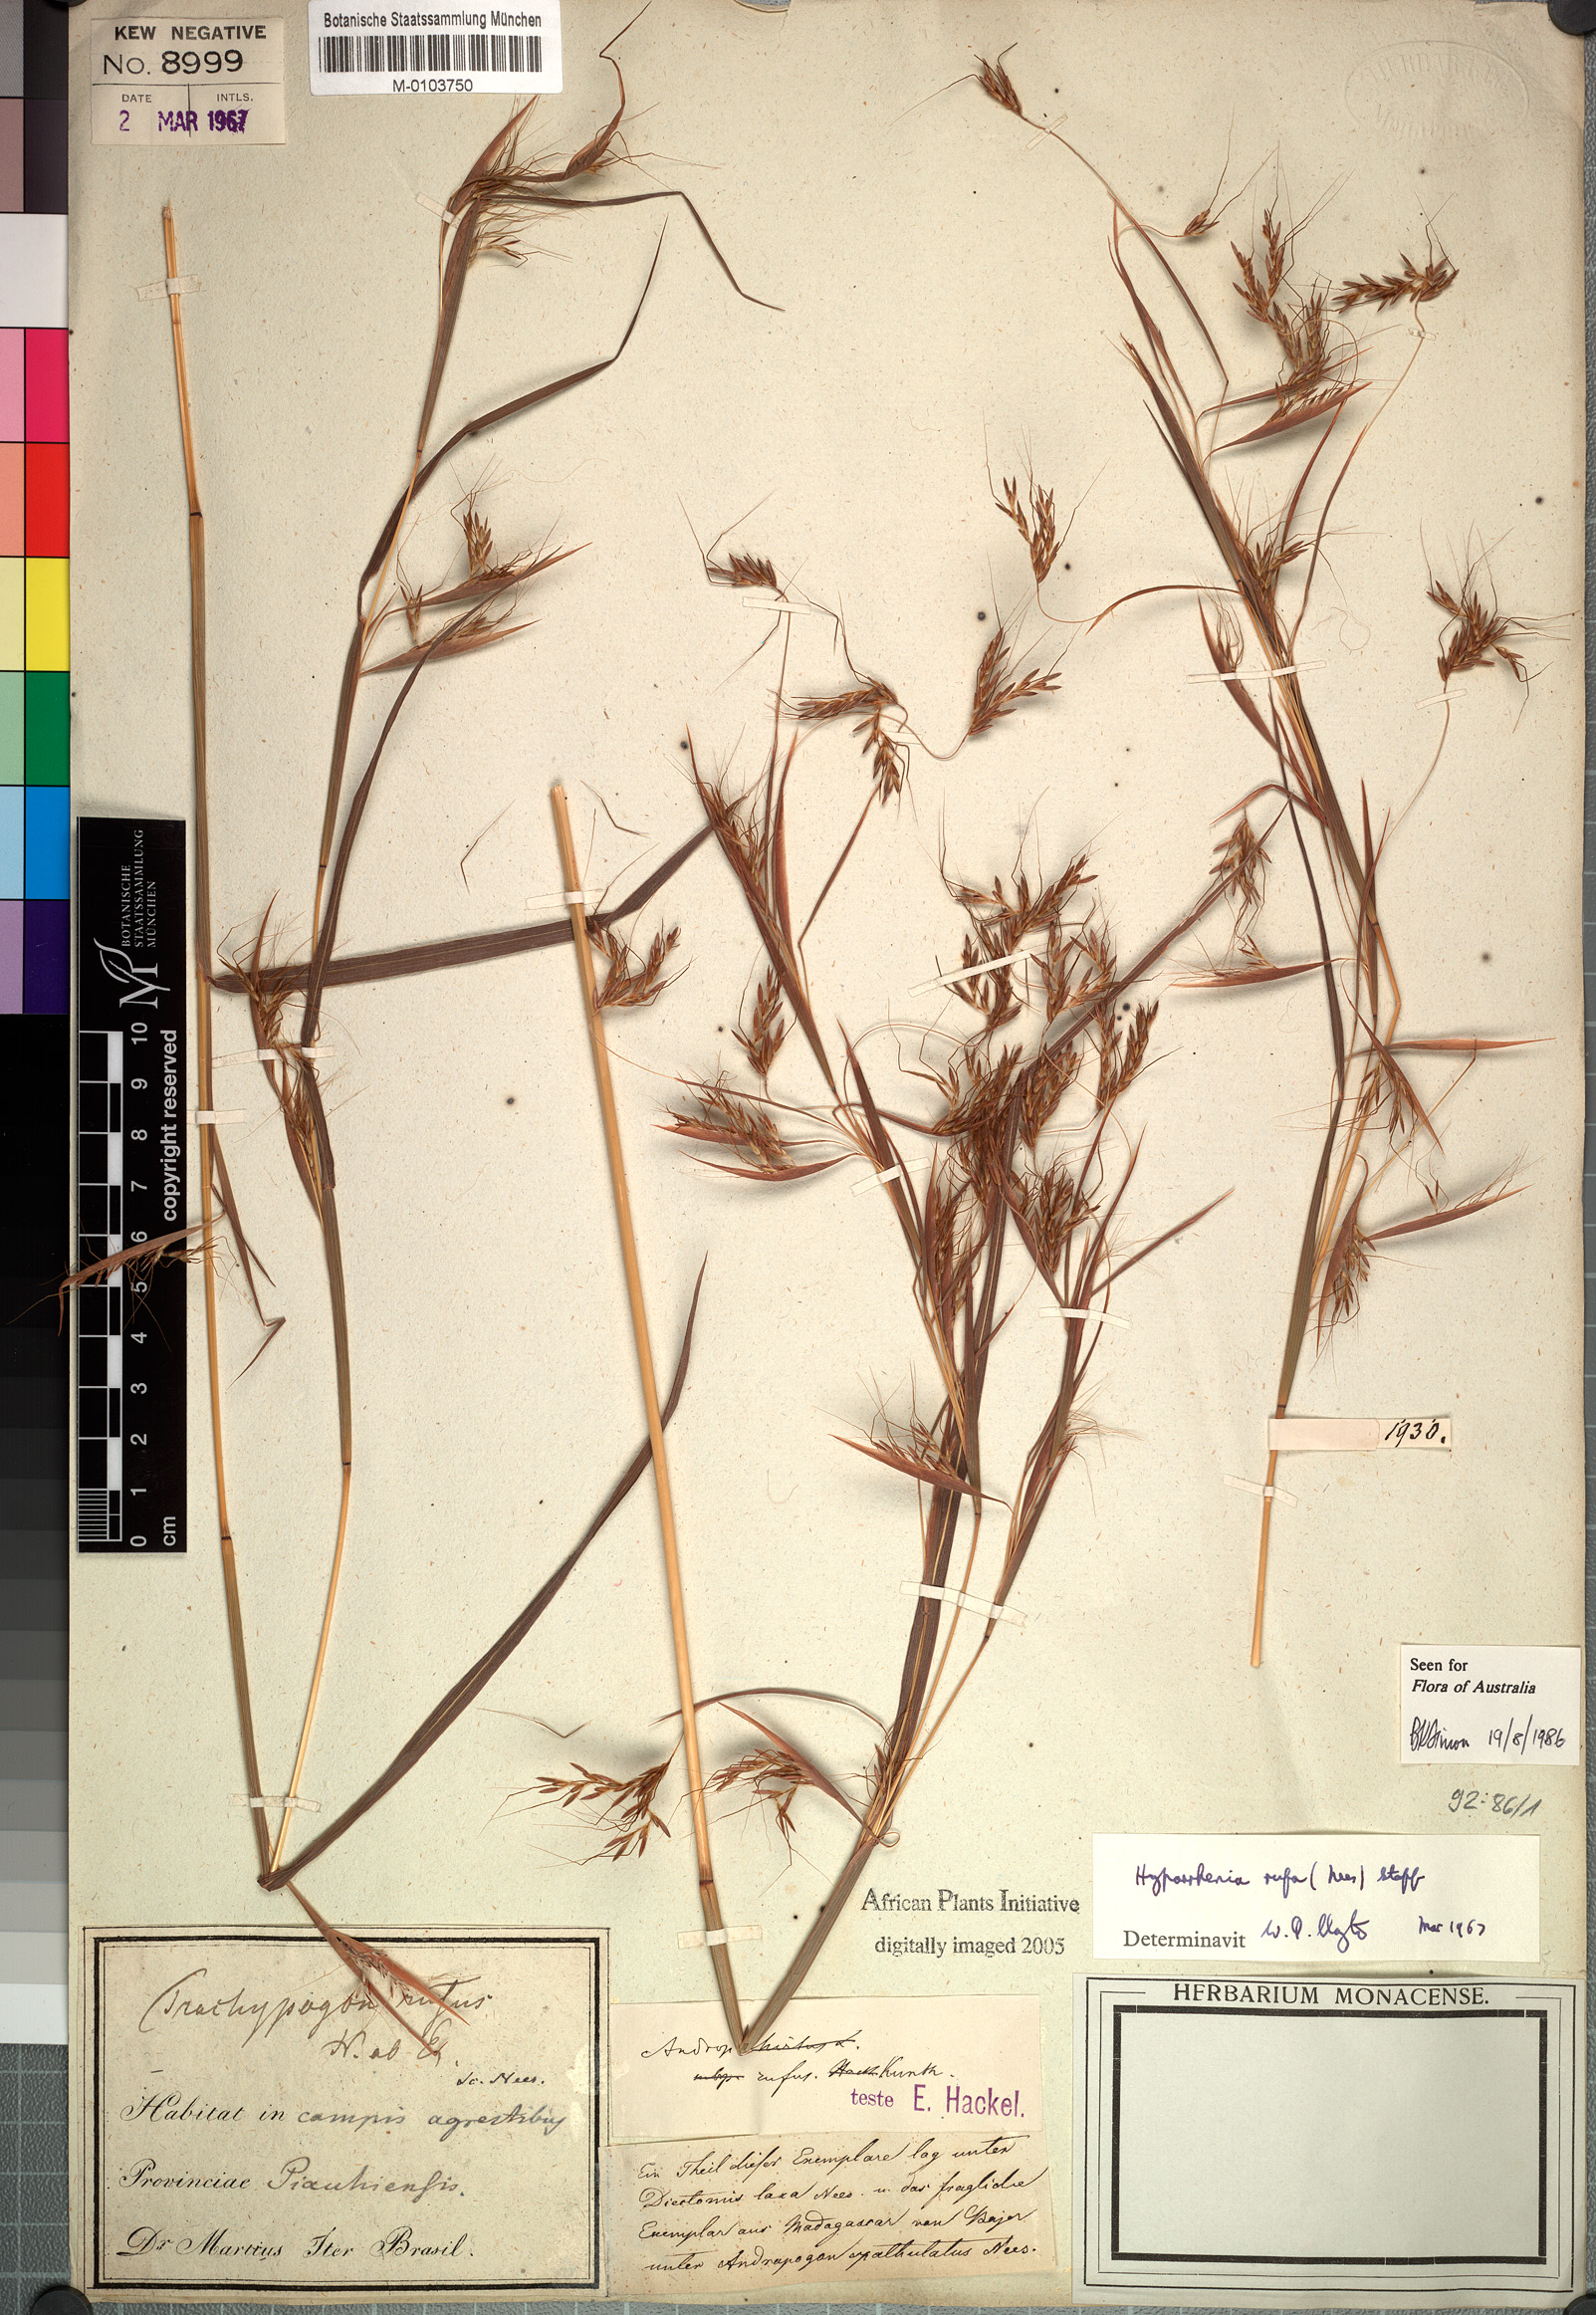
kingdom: Plantae
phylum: Tracheophyta
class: Liliopsida
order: Poales
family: Poaceae
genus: Hyparrhenia
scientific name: Hyparrhenia rufa
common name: Jaraguagrass
